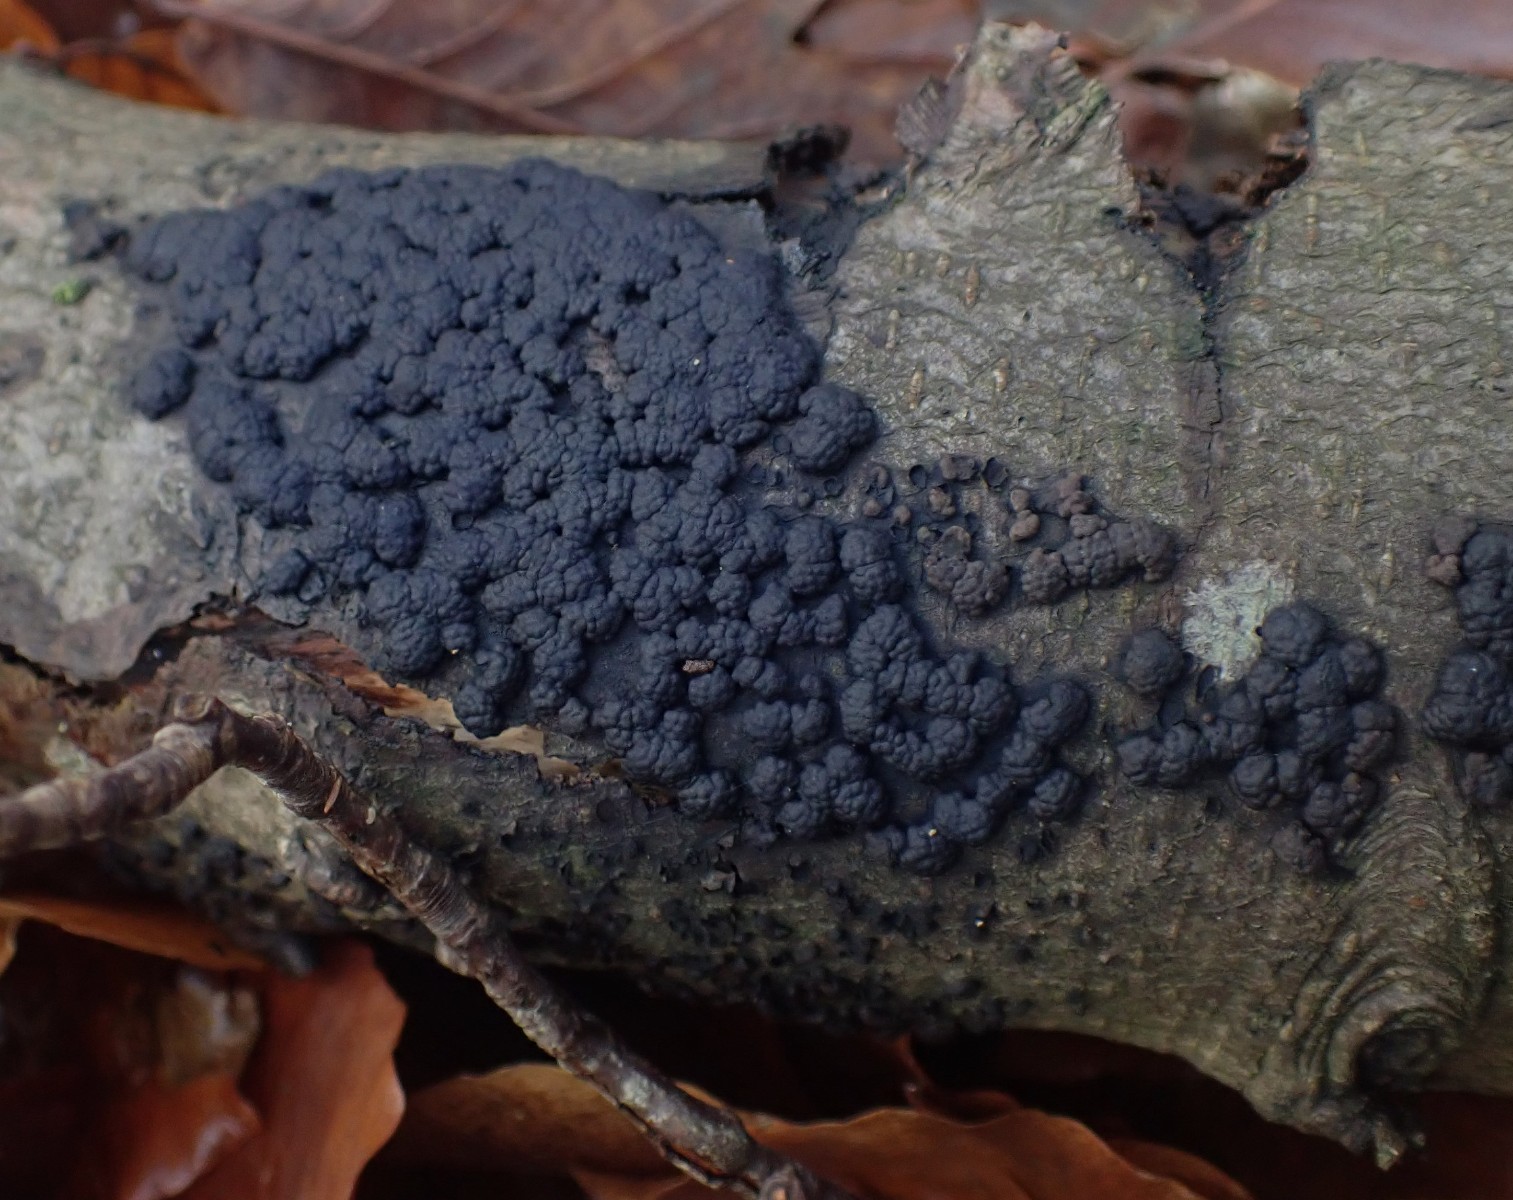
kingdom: Fungi
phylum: Ascomycota
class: Sordariomycetes
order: Xylariales
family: Hypoxylaceae
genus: Jackrogersella
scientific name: Jackrogersella cohaerens
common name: sammenflydende kulbær
